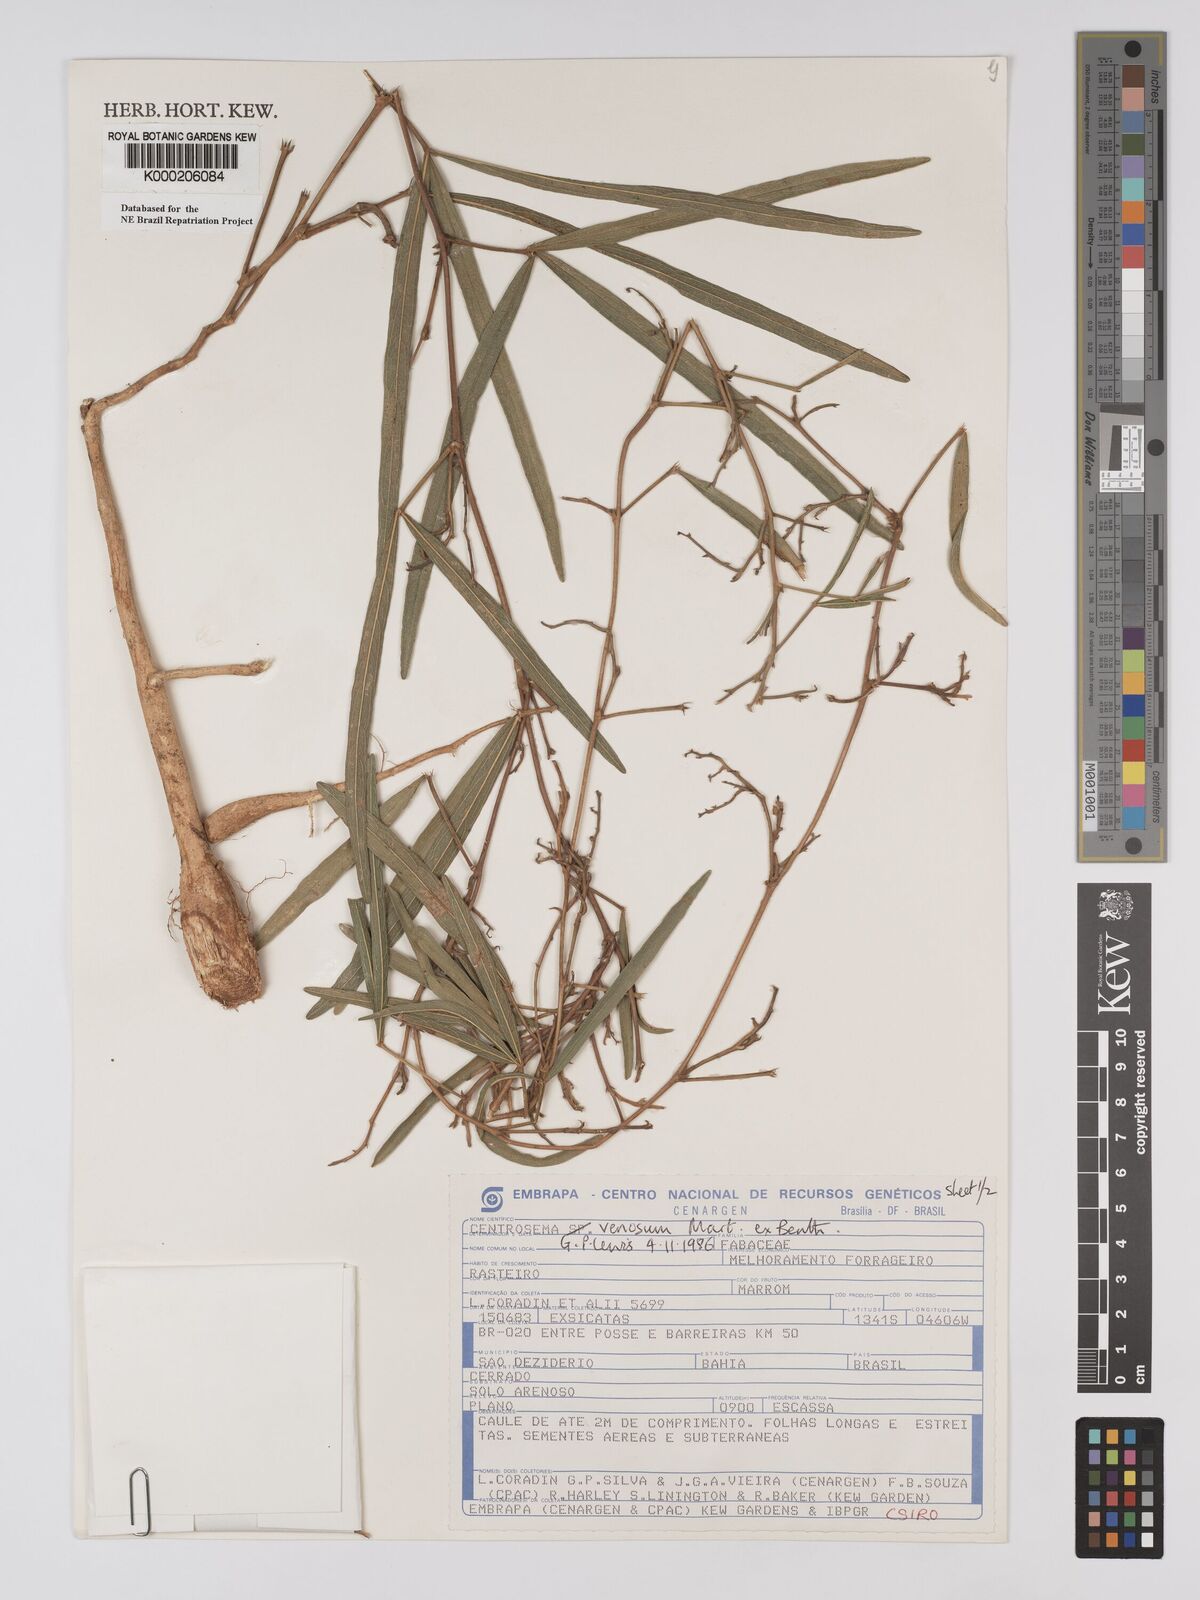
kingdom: Plantae
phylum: Tracheophyta
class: Magnoliopsida
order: Fabales
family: Fabaceae
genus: Centrosema
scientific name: Centrosema venosum
